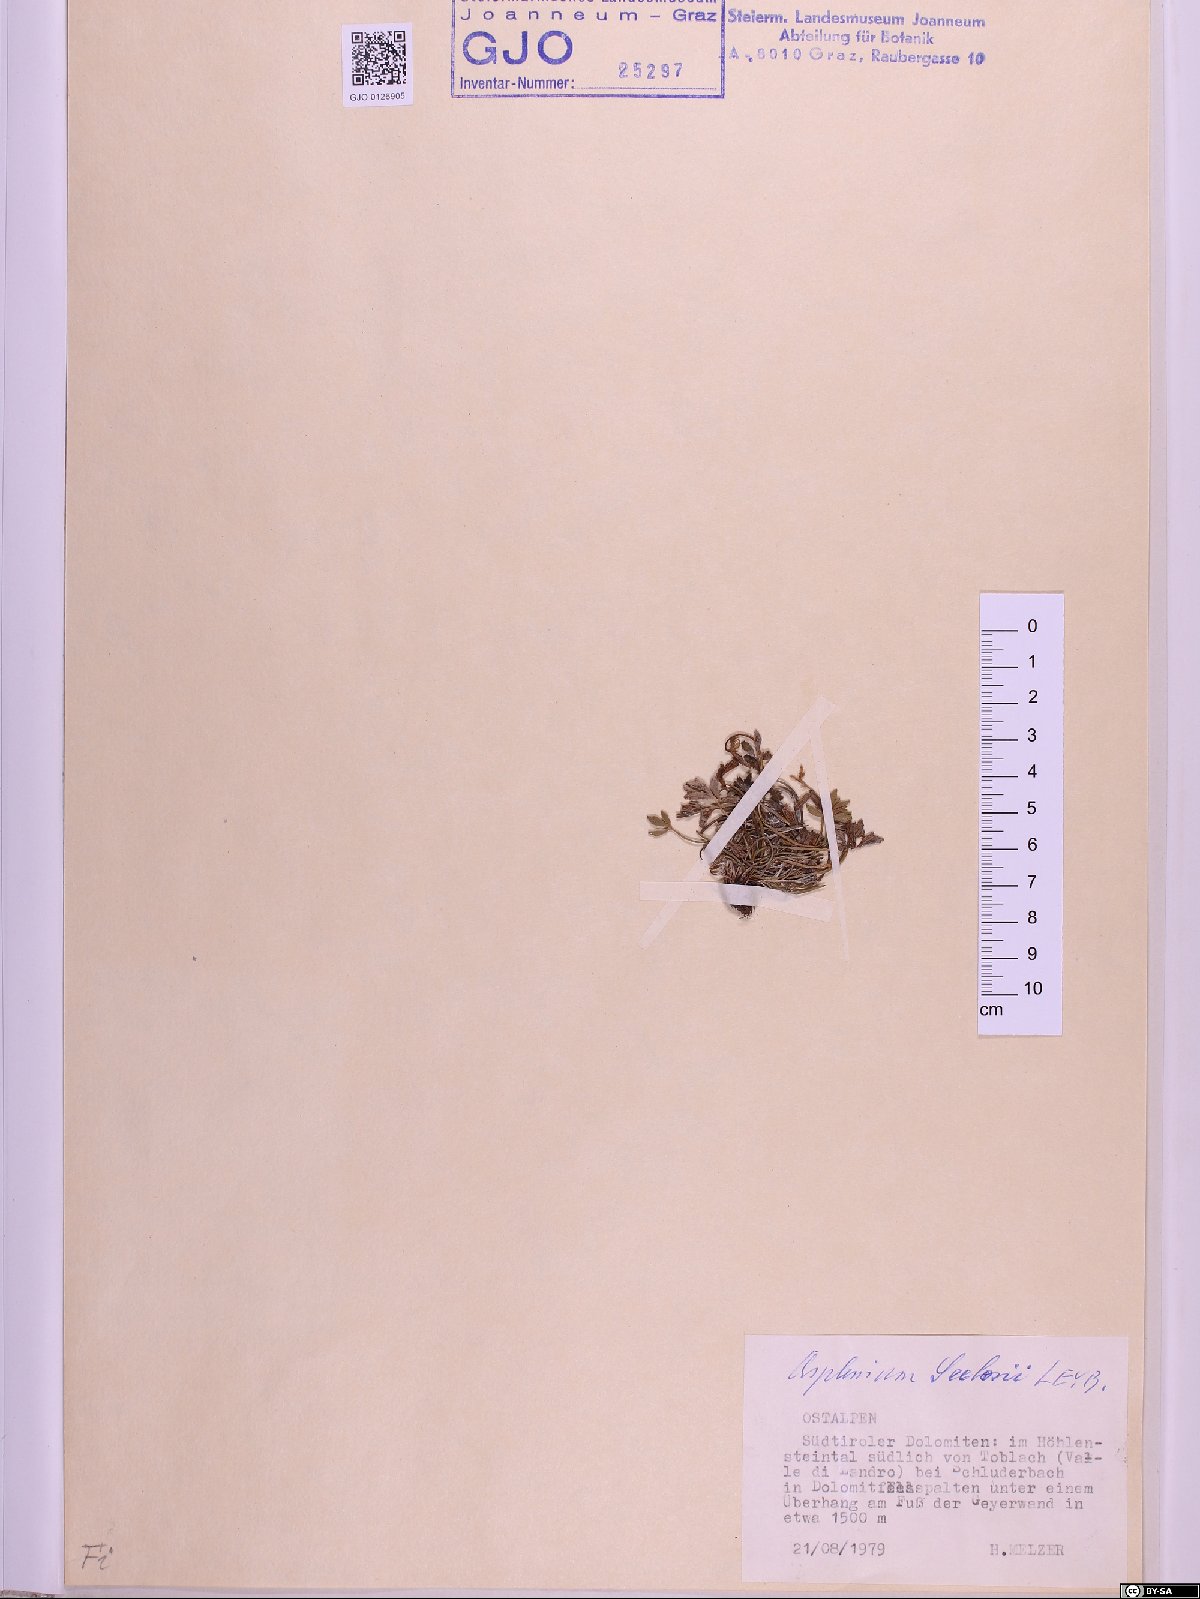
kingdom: Plantae
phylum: Tracheophyta
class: Polypodiopsida
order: Polypodiales
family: Aspleniaceae
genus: Asplenium
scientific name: Asplenium seelosii
